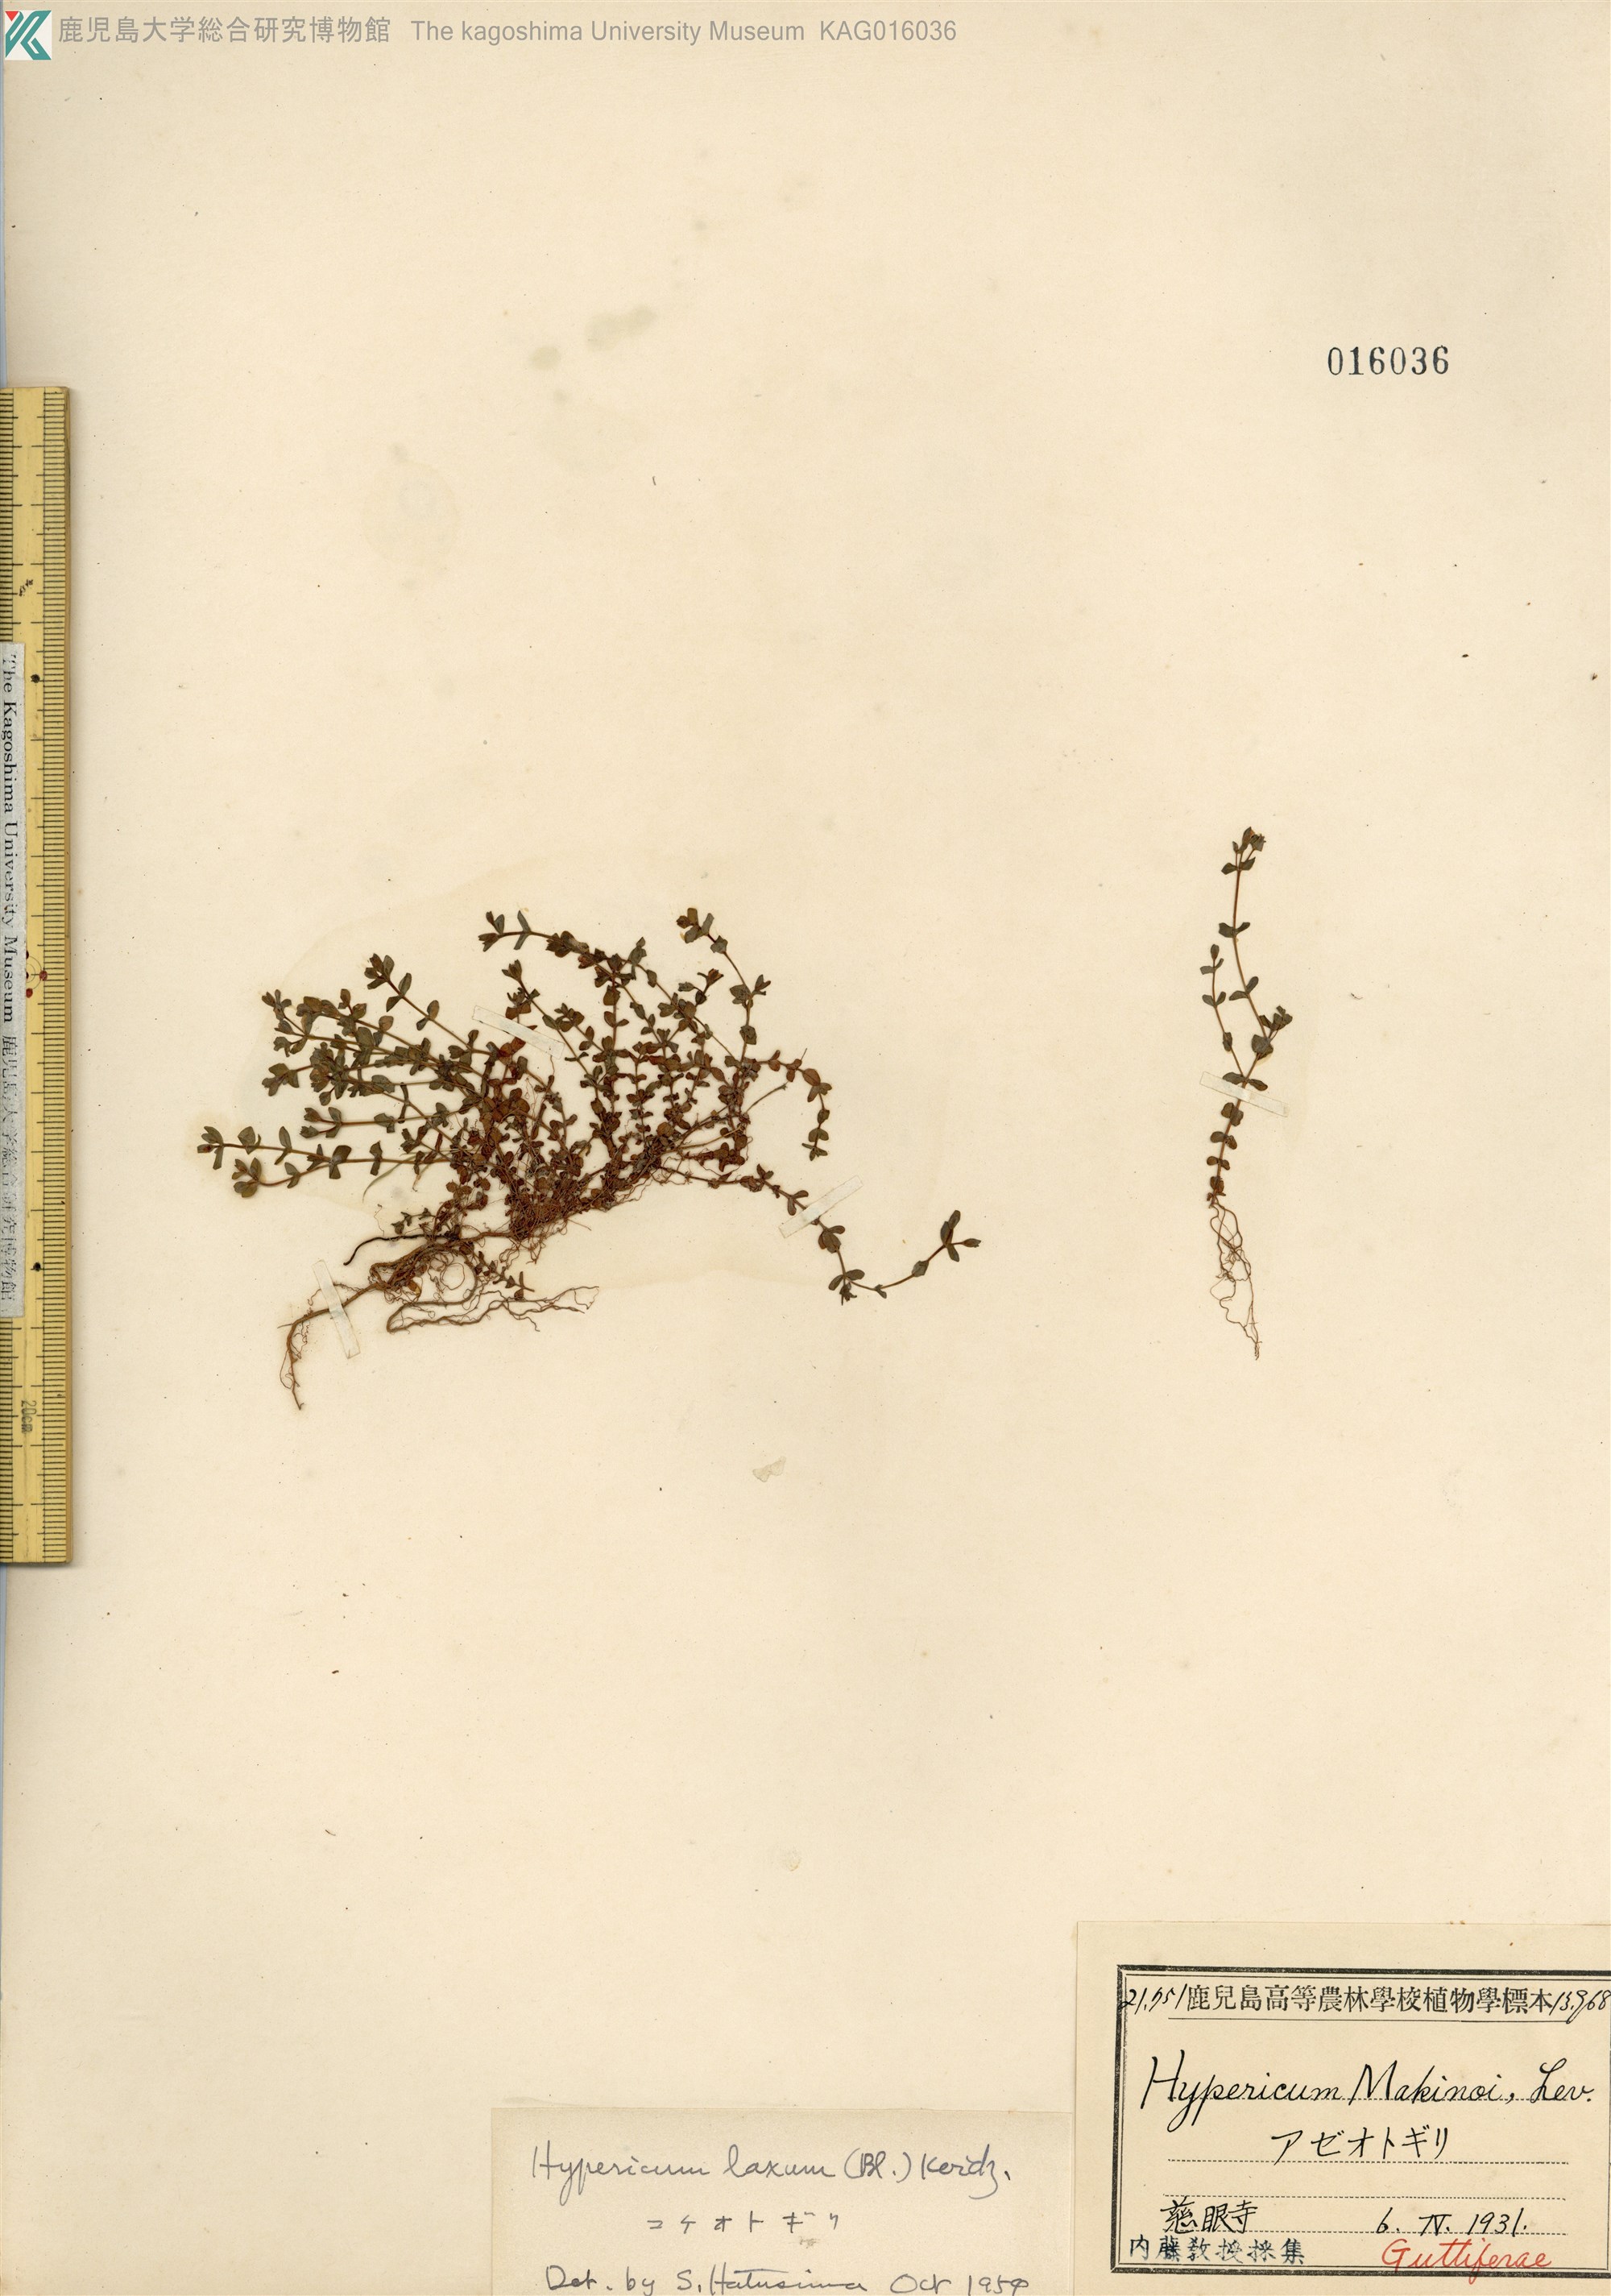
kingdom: Plantae
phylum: Tracheophyta
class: Magnoliopsida
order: Malpighiales
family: Hypericaceae
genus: Hypericum
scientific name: Hypericum japonicum
